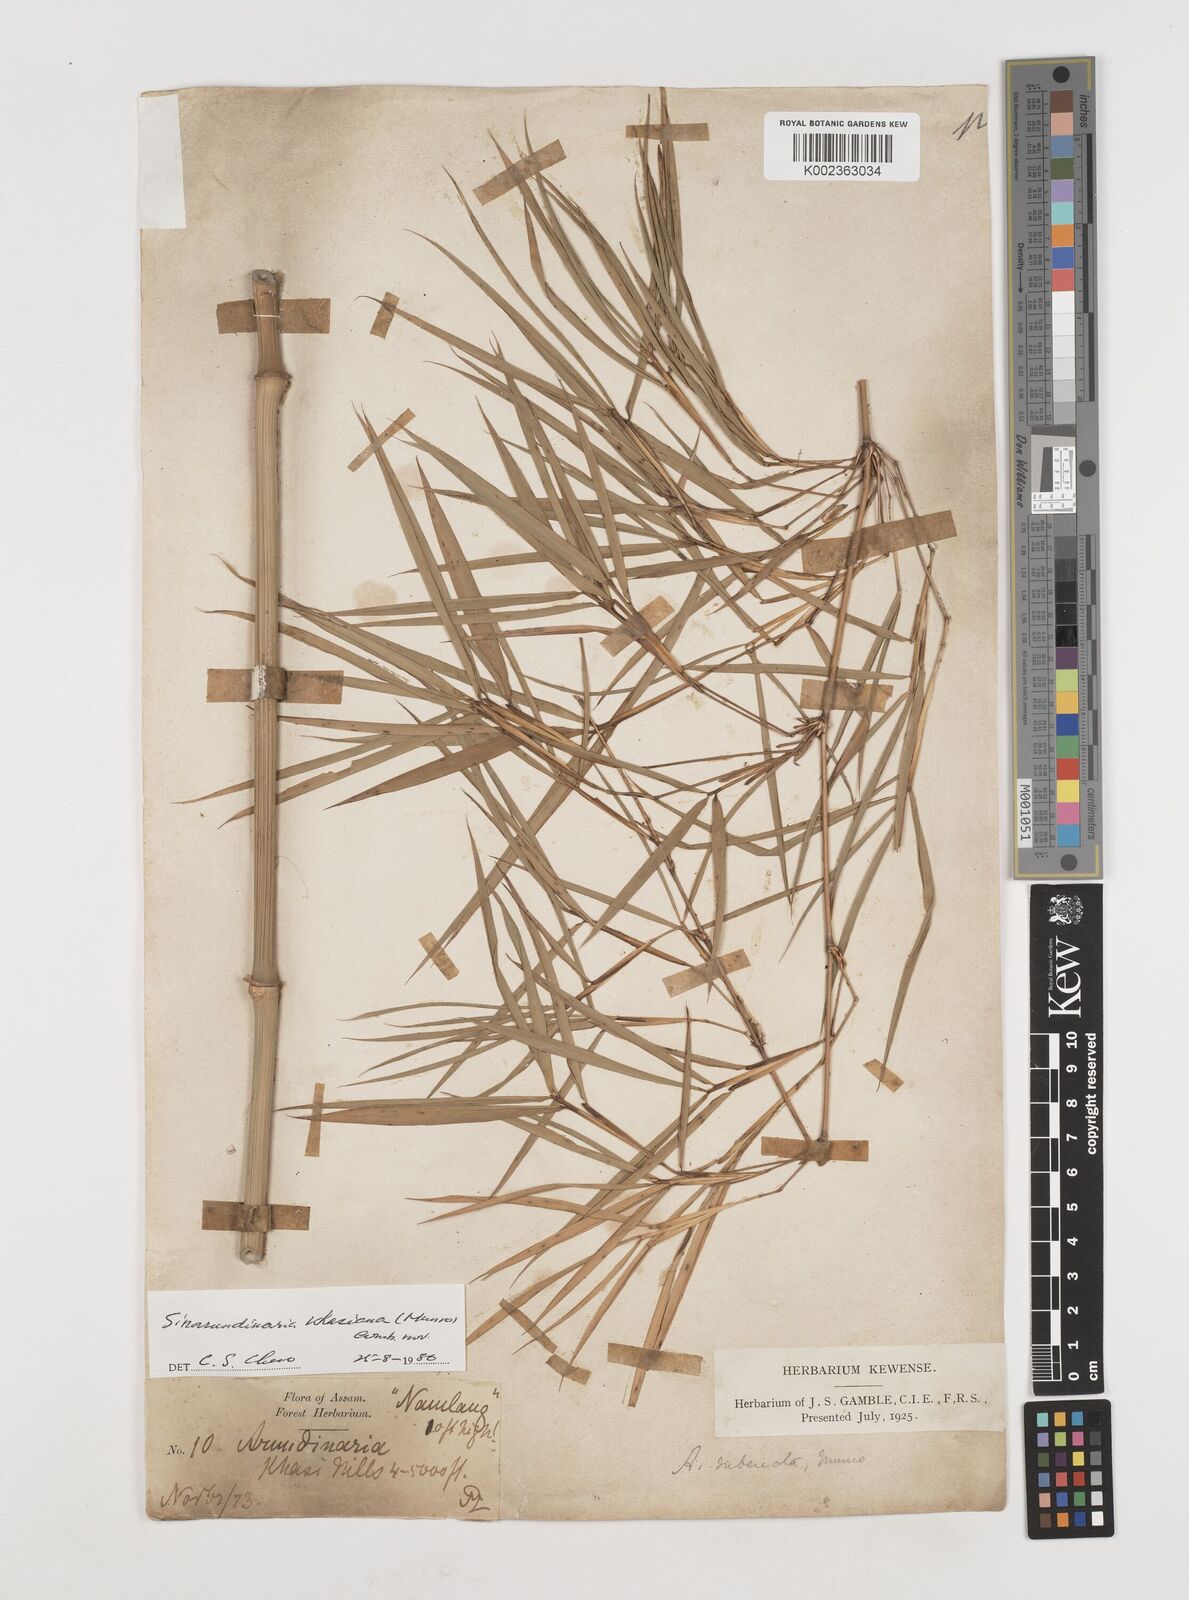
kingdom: Plantae
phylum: Tracheophyta
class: Liliopsida
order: Poales
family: Poaceae
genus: Drepanostachyum
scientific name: Drepanostachyum khasianum
